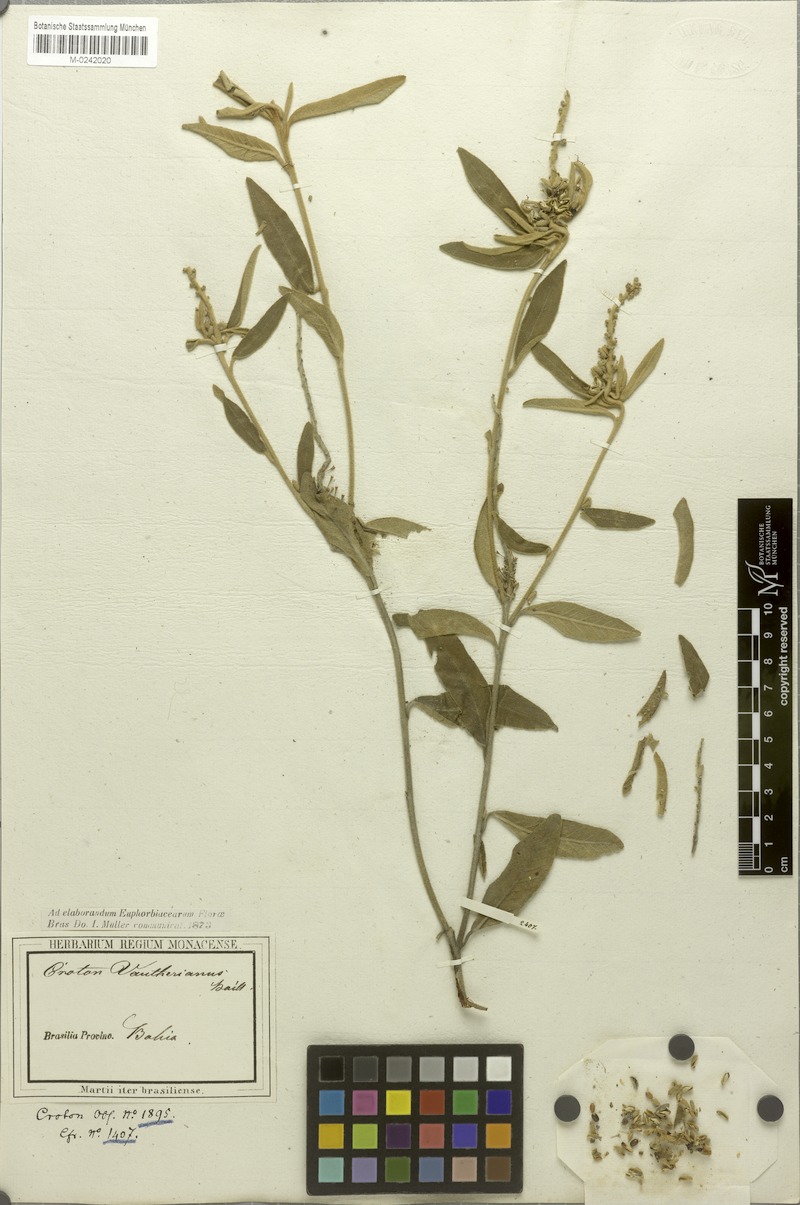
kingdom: Plantae
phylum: Tracheophyta
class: Magnoliopsida
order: Malpighiales
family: Euphorbiaceae
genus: Croton
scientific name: Croton vauthierianus
